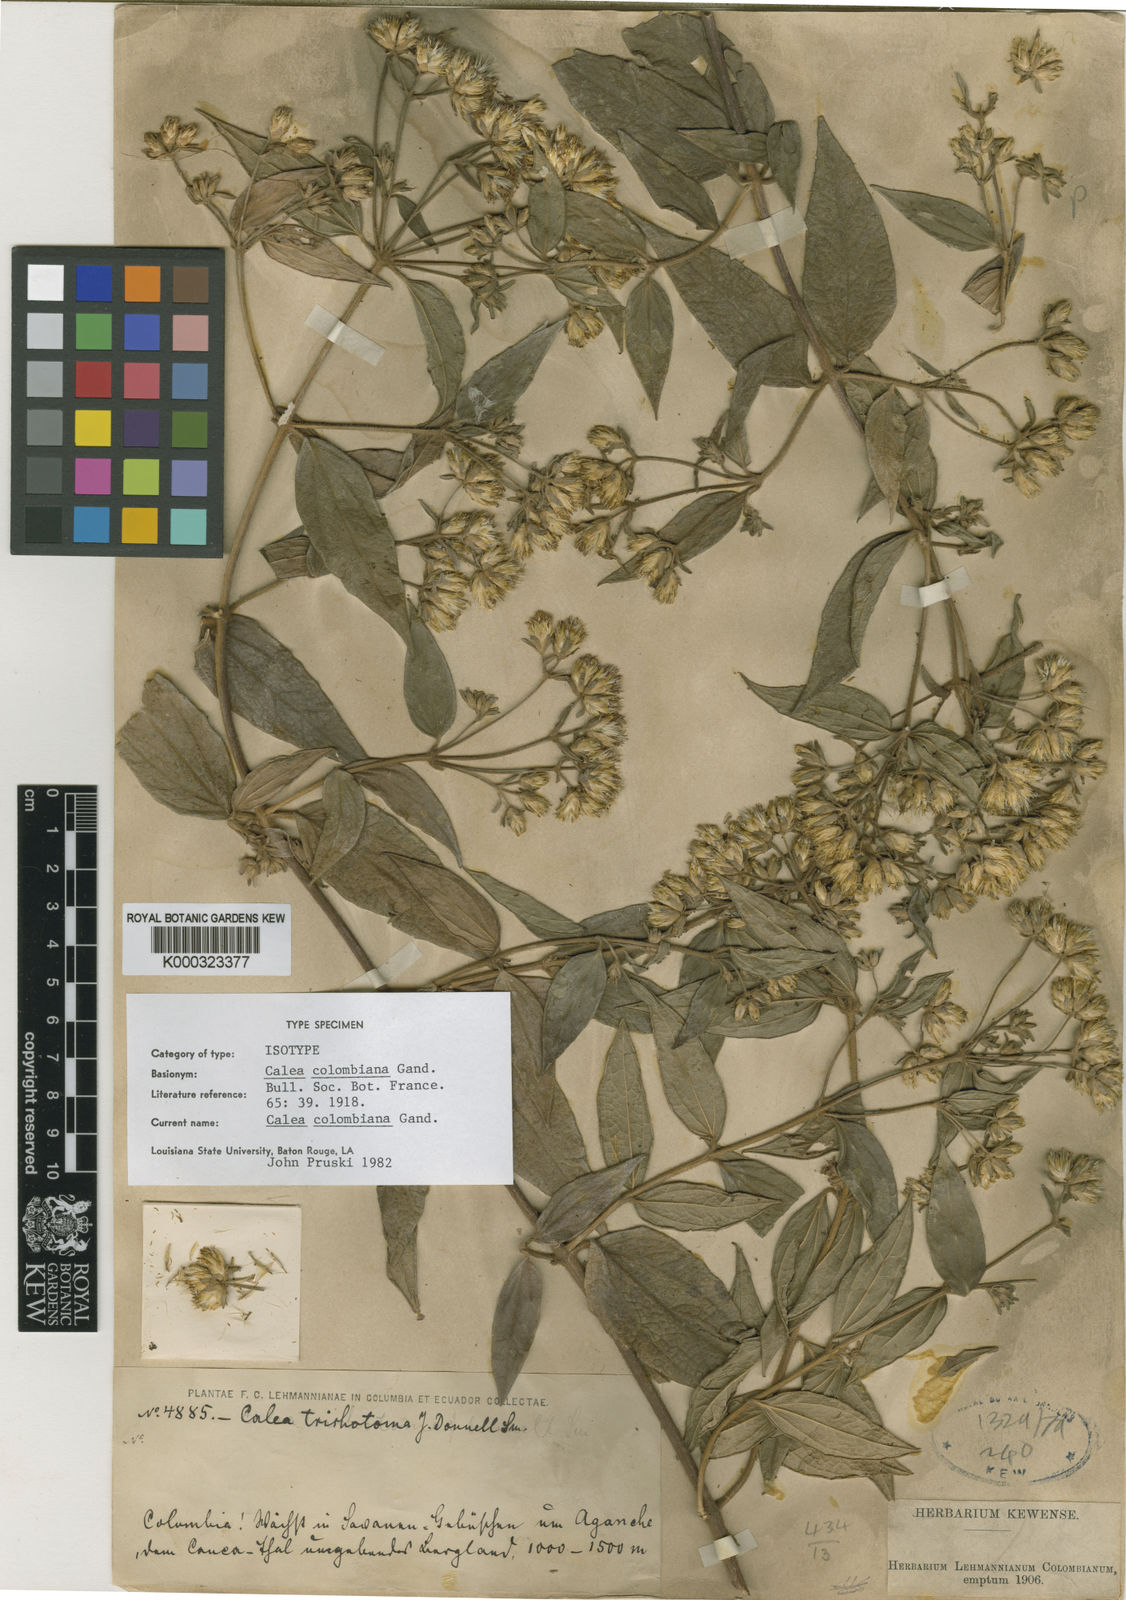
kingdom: Plantae
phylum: Tracheophyta
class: Magnoliopsida
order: Asterales
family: Asteraceae
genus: Calea
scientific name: Calea colombiana
